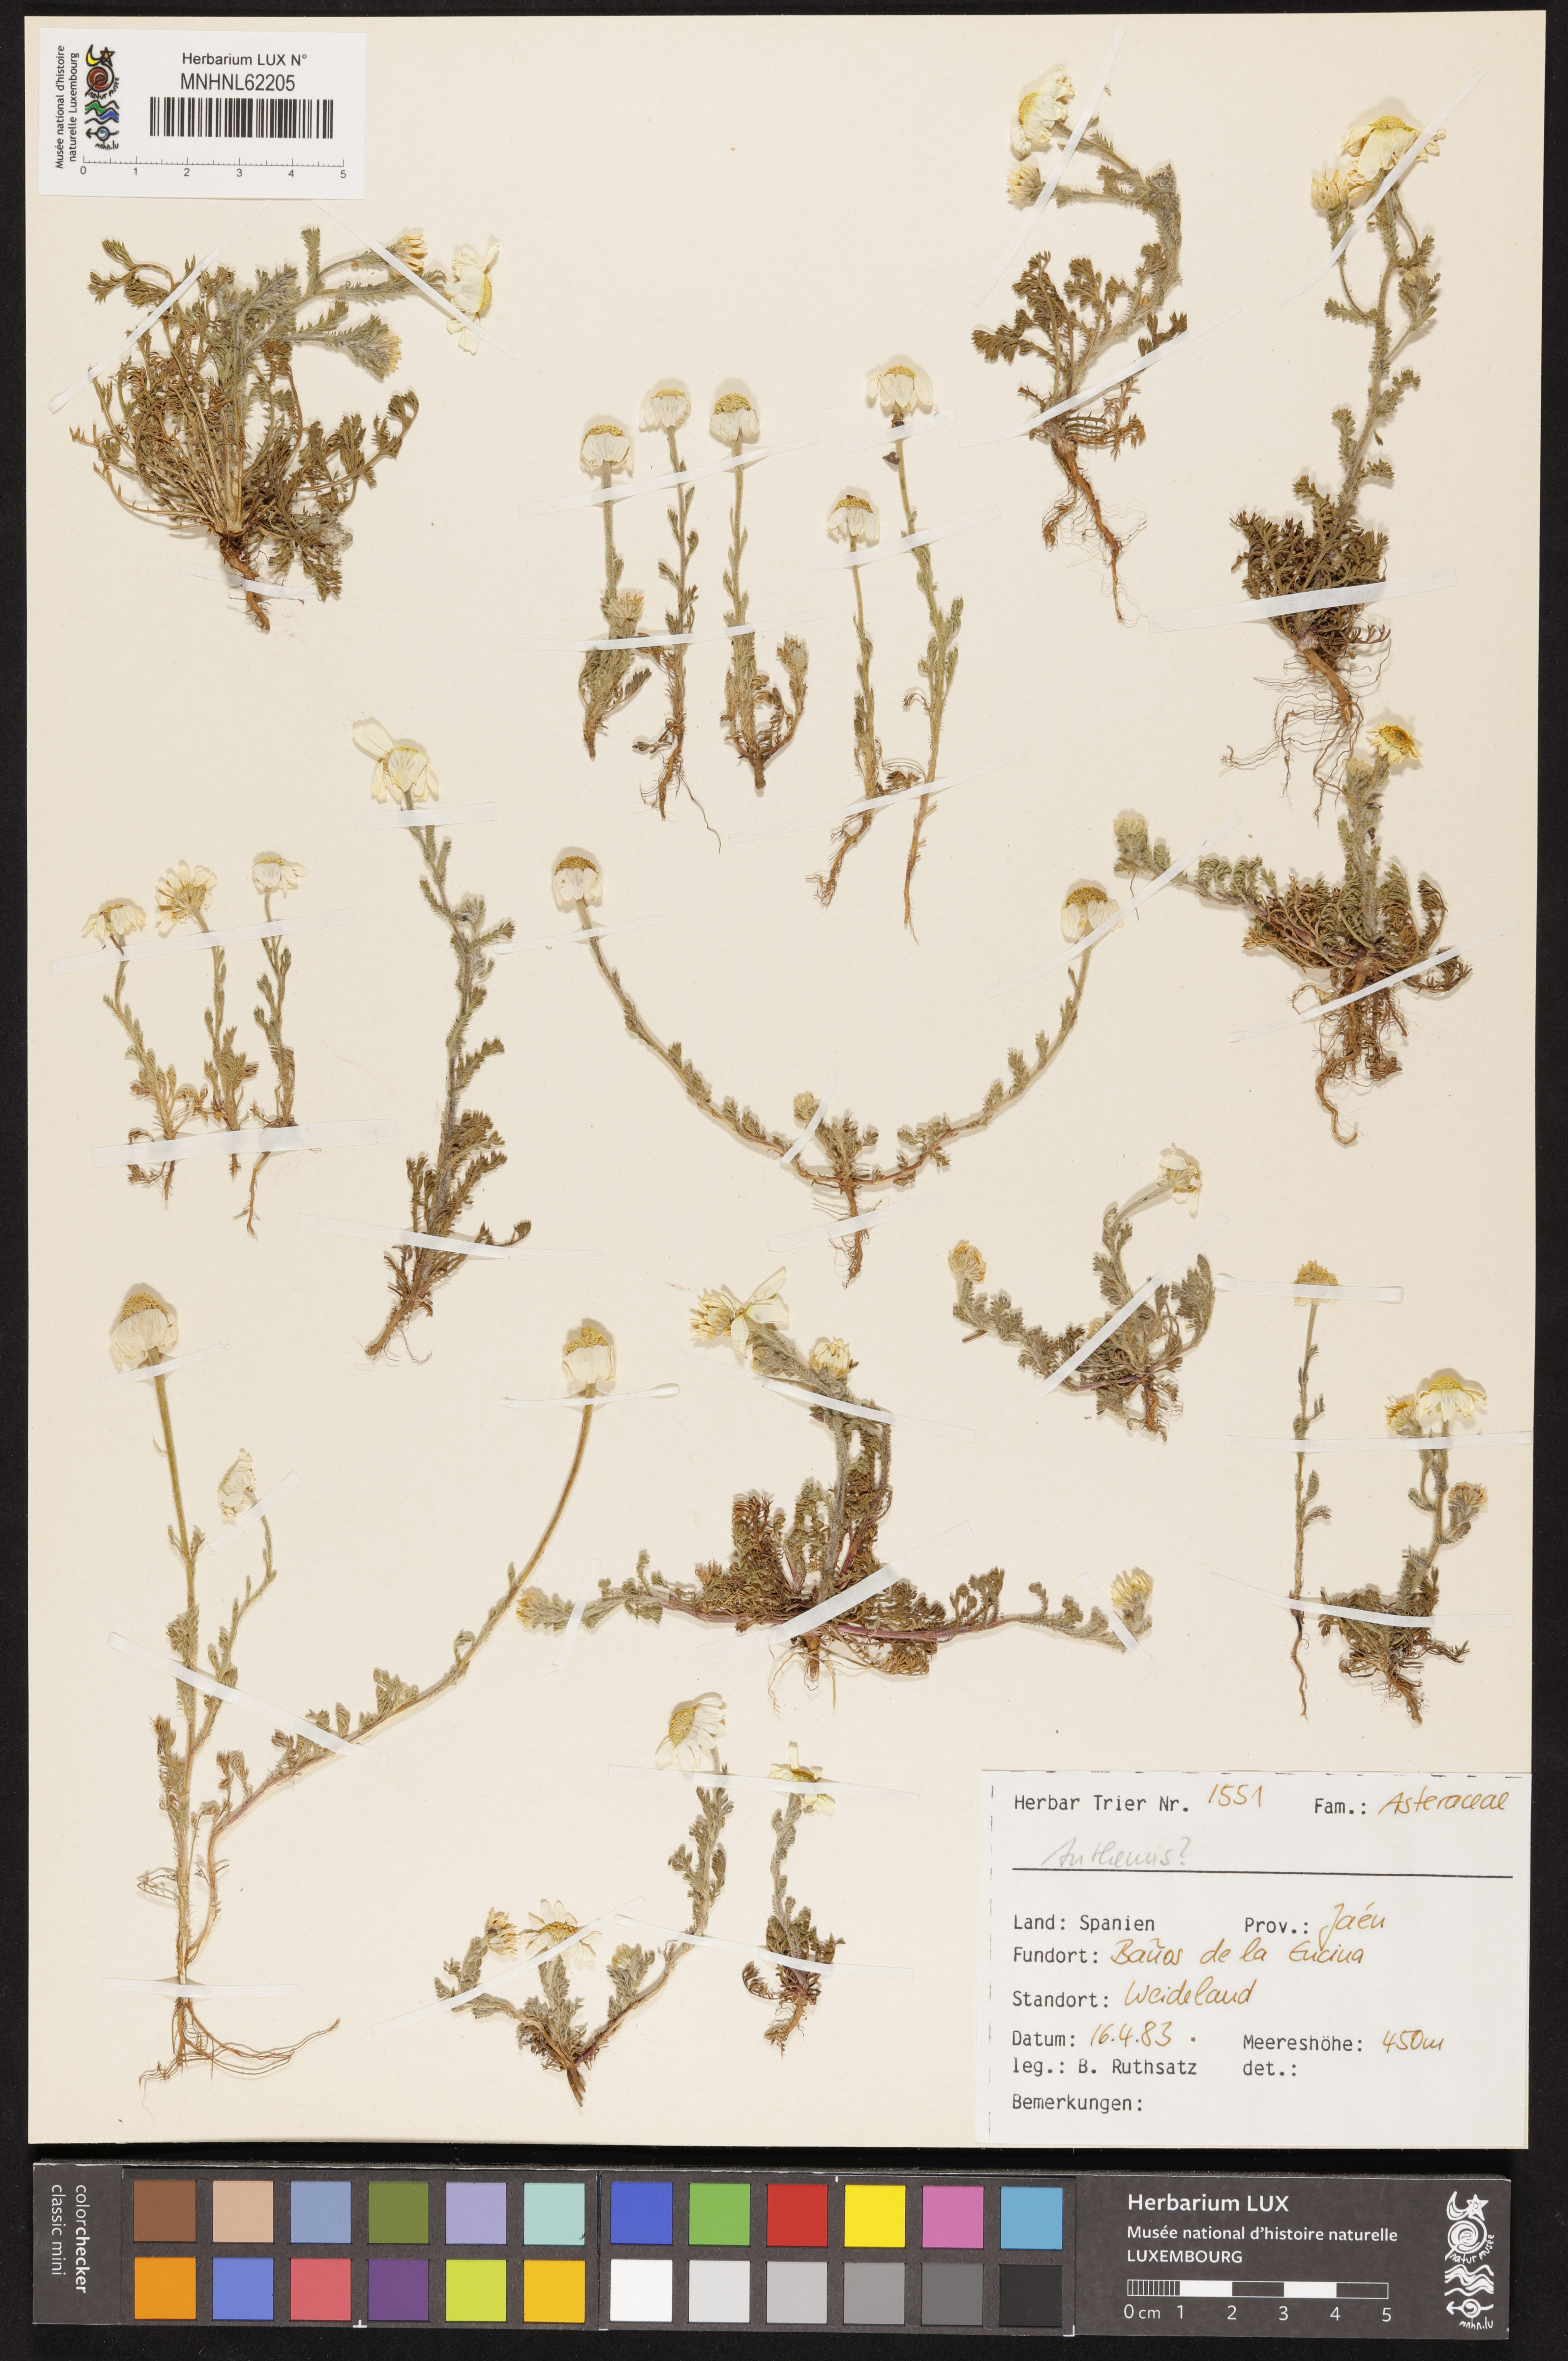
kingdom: Plantae
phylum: Tracheophyta
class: Magnoliopsida
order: Asterales
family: Asteraceae
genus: Anthemis
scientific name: Anthemis
